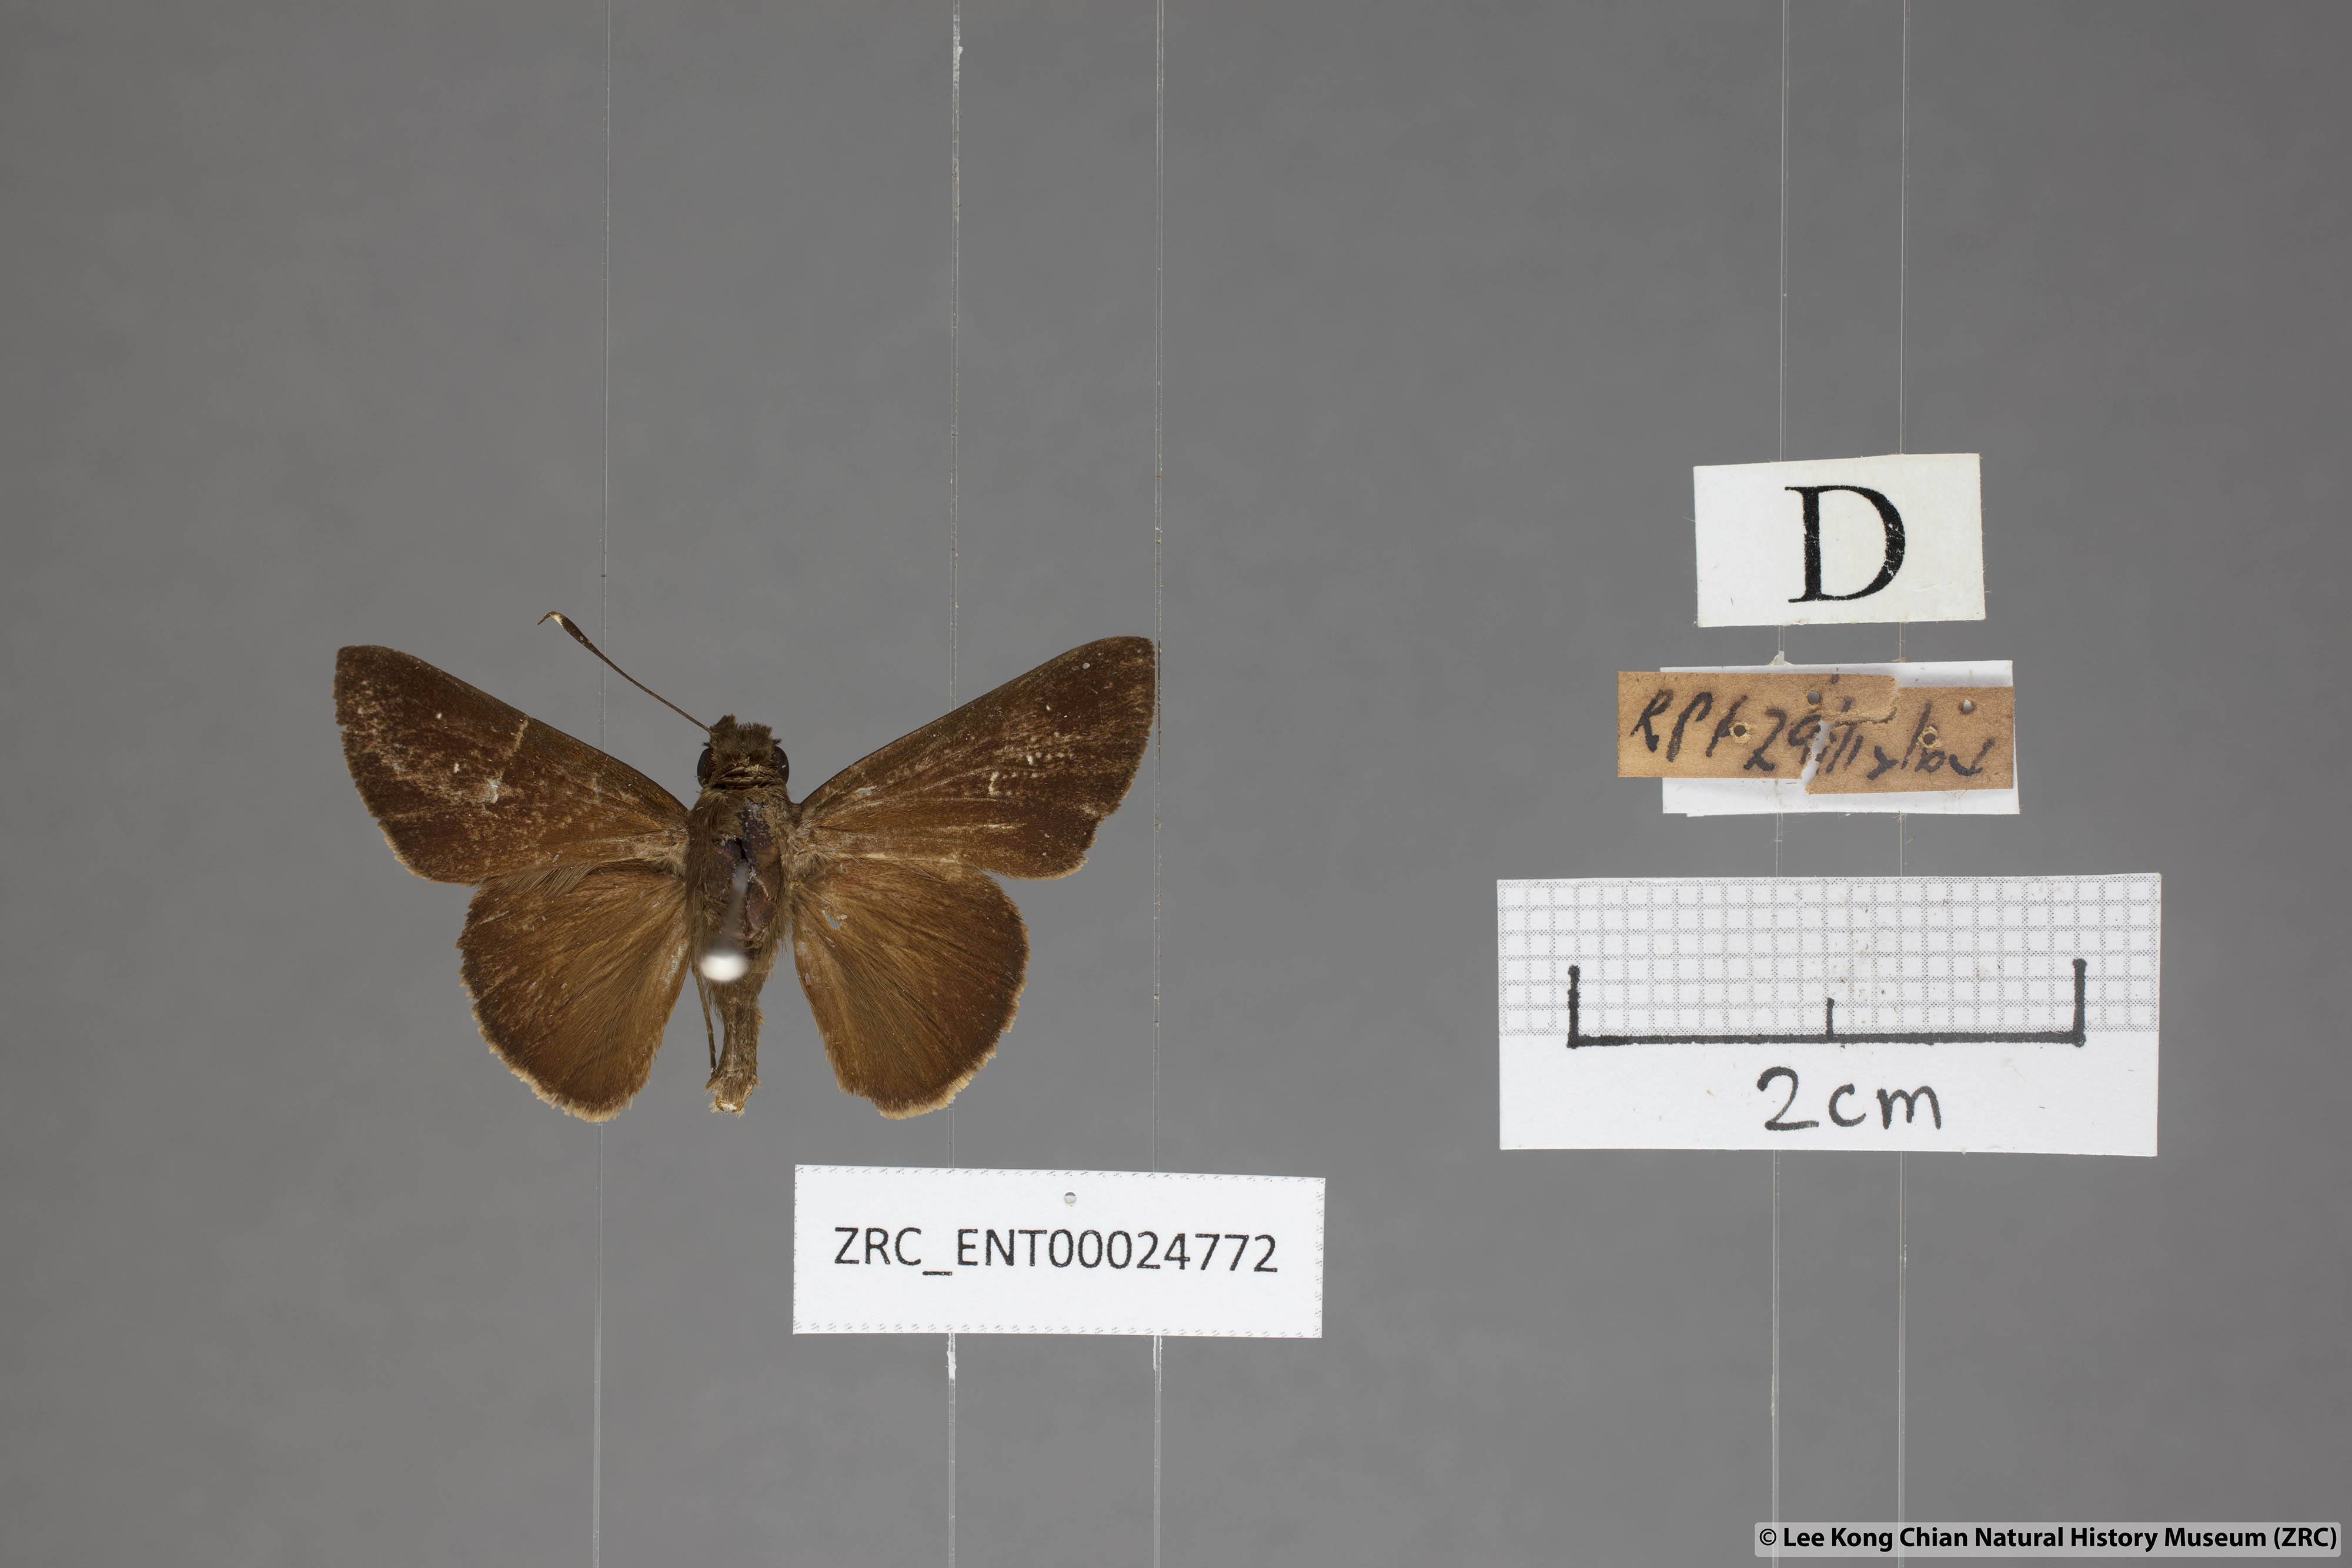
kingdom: Animalia
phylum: Arthropoda
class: Insecta
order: Lepidoptera
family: Hesperiidae
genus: Hyarotis
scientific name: Hyarotis microstictum
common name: Small brush flitter
